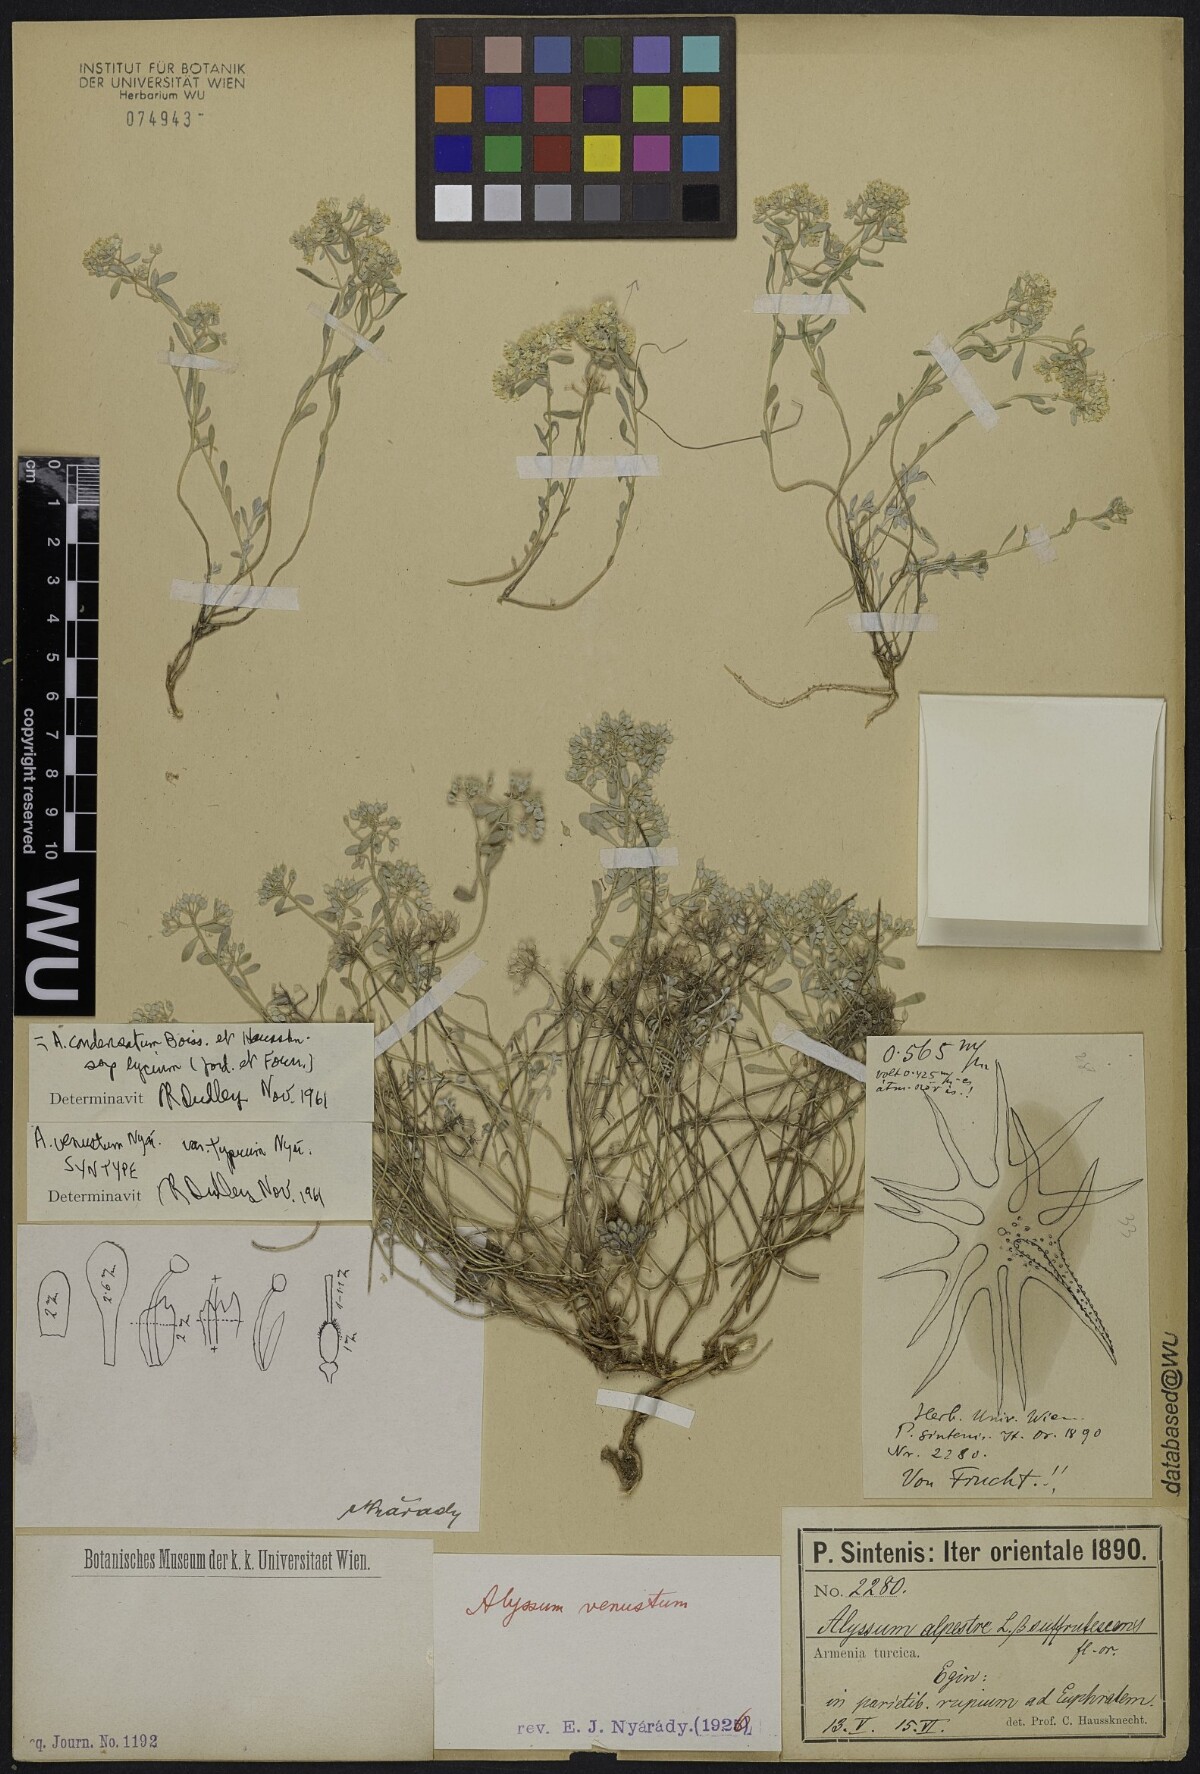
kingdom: Plantae
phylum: Tracheophyta
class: Magnoliopsida
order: Brassicales
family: Brassicaceae
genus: Odontarrhena
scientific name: Odontarrhena condensata
